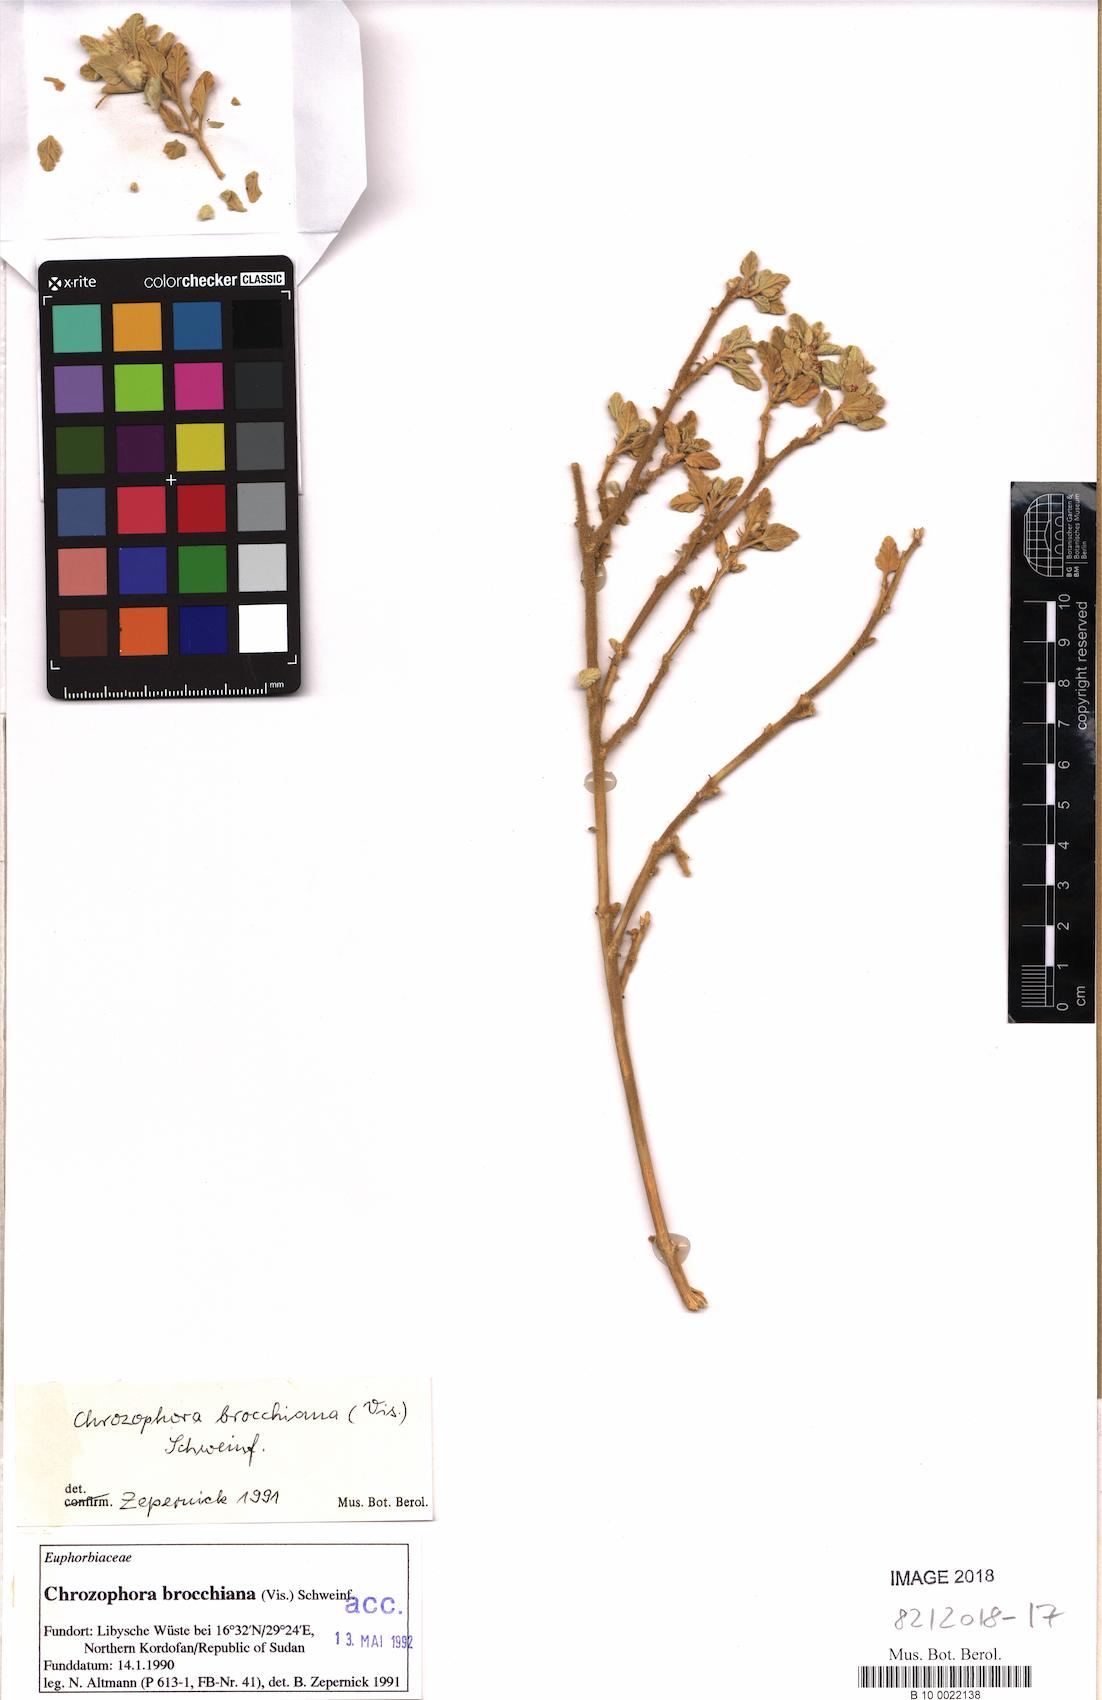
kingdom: Plantae
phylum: Tracheophyta
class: Magnoliopsida
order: Malpighiales
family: Euphorbiaceae
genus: Chrozophora
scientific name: Chrozophora brocchiana
